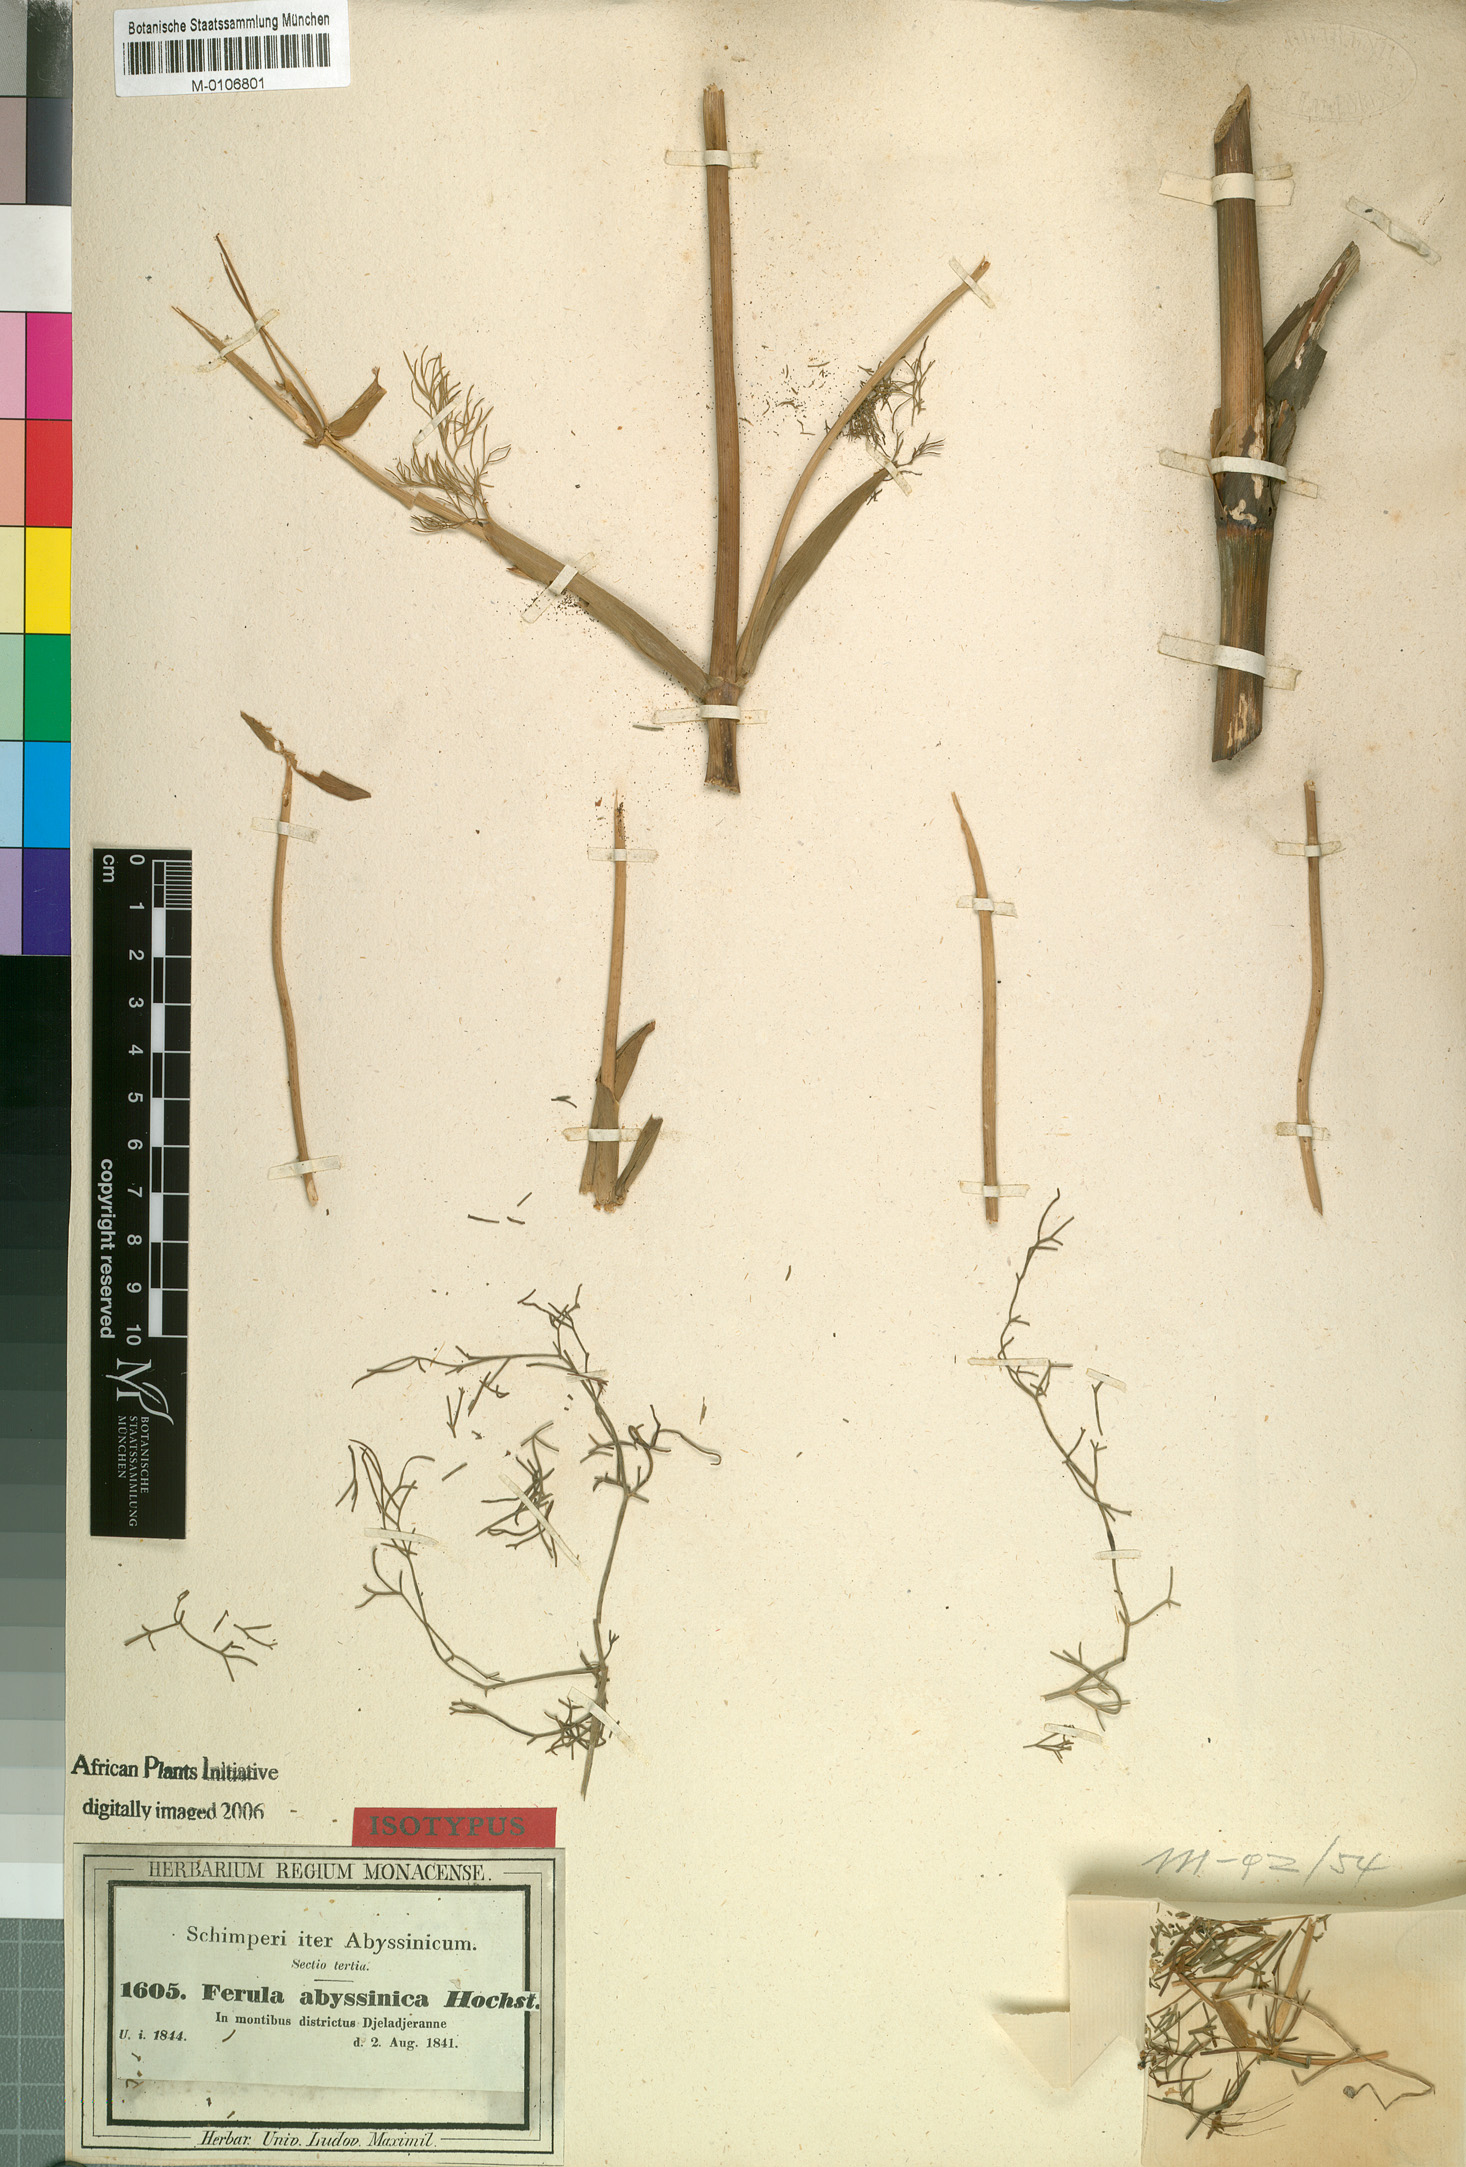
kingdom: Plantae
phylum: Tracheophyta
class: Magnoliopsida
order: Apiales
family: Apiaceae
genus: Ferula
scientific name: Ferula communis
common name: Giant fennel
